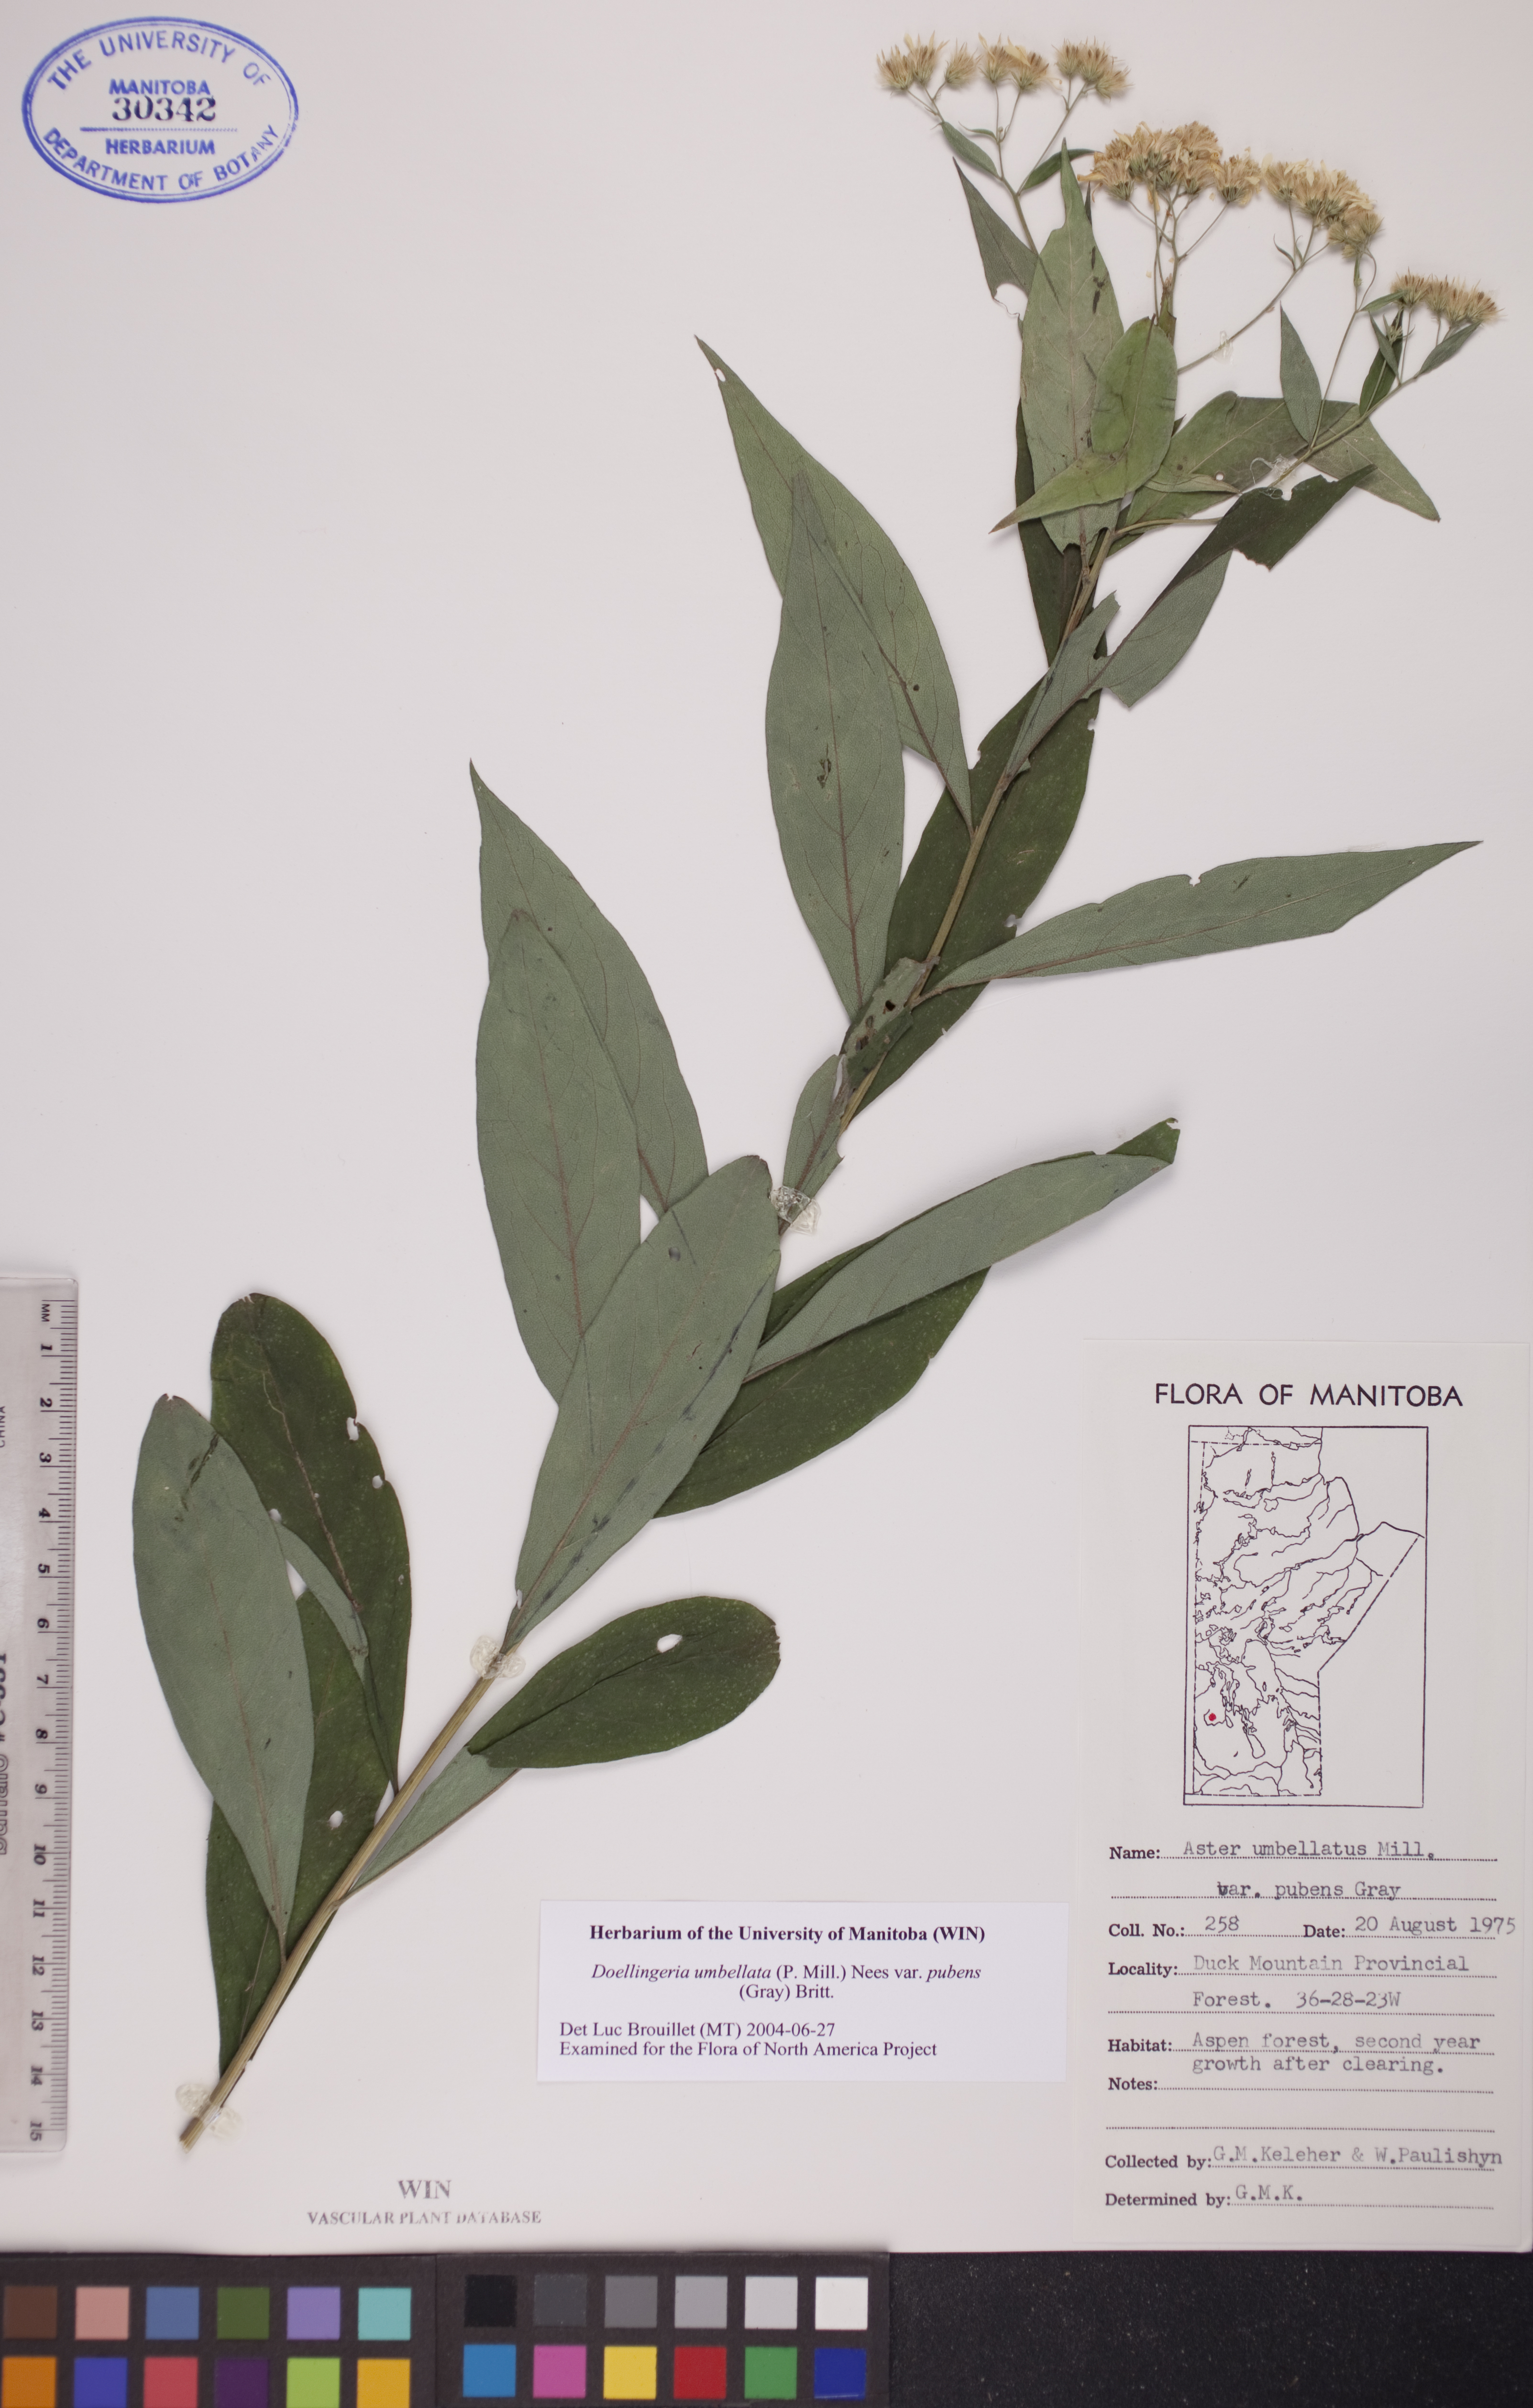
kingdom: Plantae
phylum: Tracheophyta
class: Magnoliopsida
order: Asterales
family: Asteraceae
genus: Doellingeria
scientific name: Doellingeria umbellata
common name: Flat-top white aster
